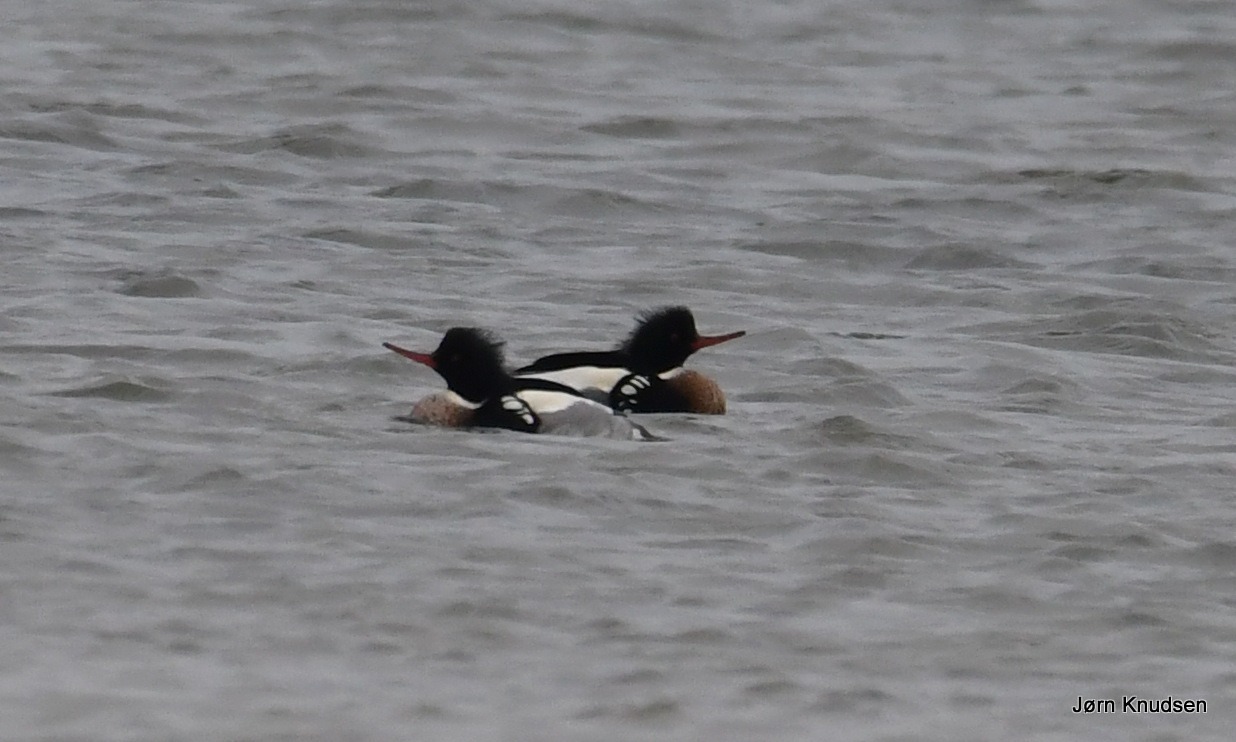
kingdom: Animalia
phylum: Chordata
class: Aves
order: Anseriformes
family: Anatidae
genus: Mergus
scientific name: Mergus serrator
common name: Toppet skallesluger
